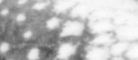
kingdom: Animalia
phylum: Chordata
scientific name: Chordata
